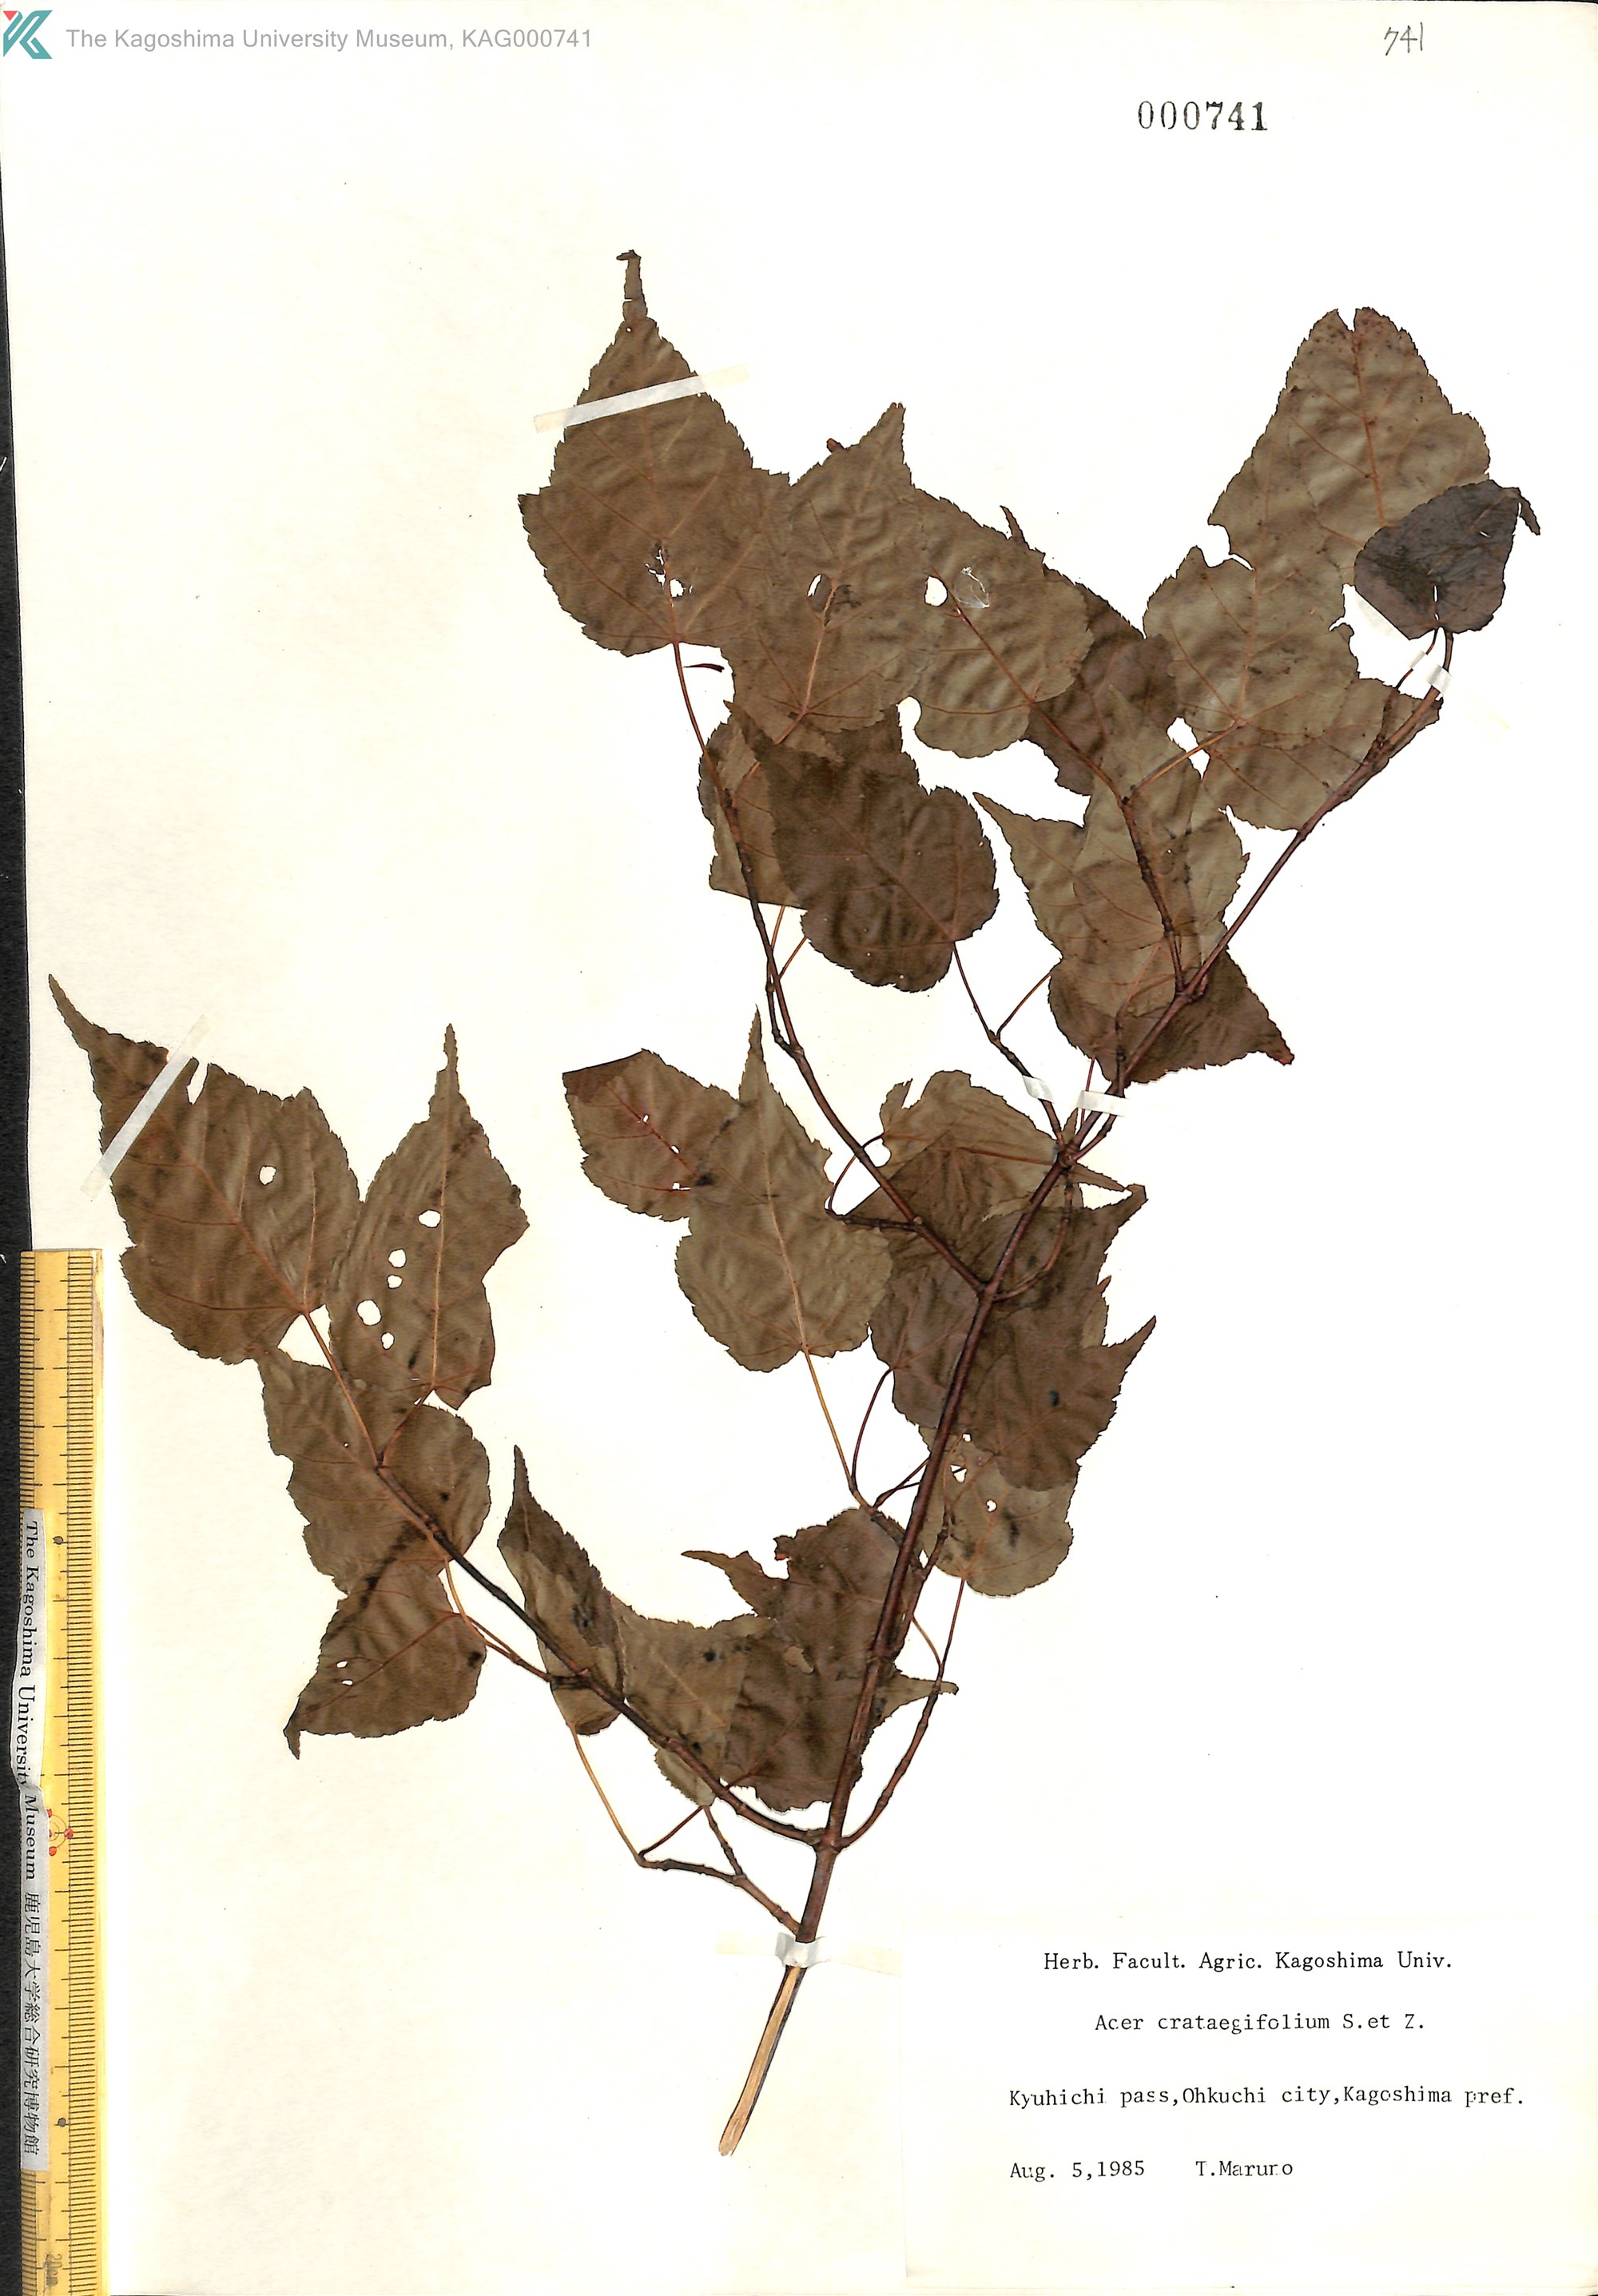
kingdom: Plantae
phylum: Tracheophyta
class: Magnoliopsida
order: Sapindales
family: Sapindaceae
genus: Acer
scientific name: Acer crataegifolium
